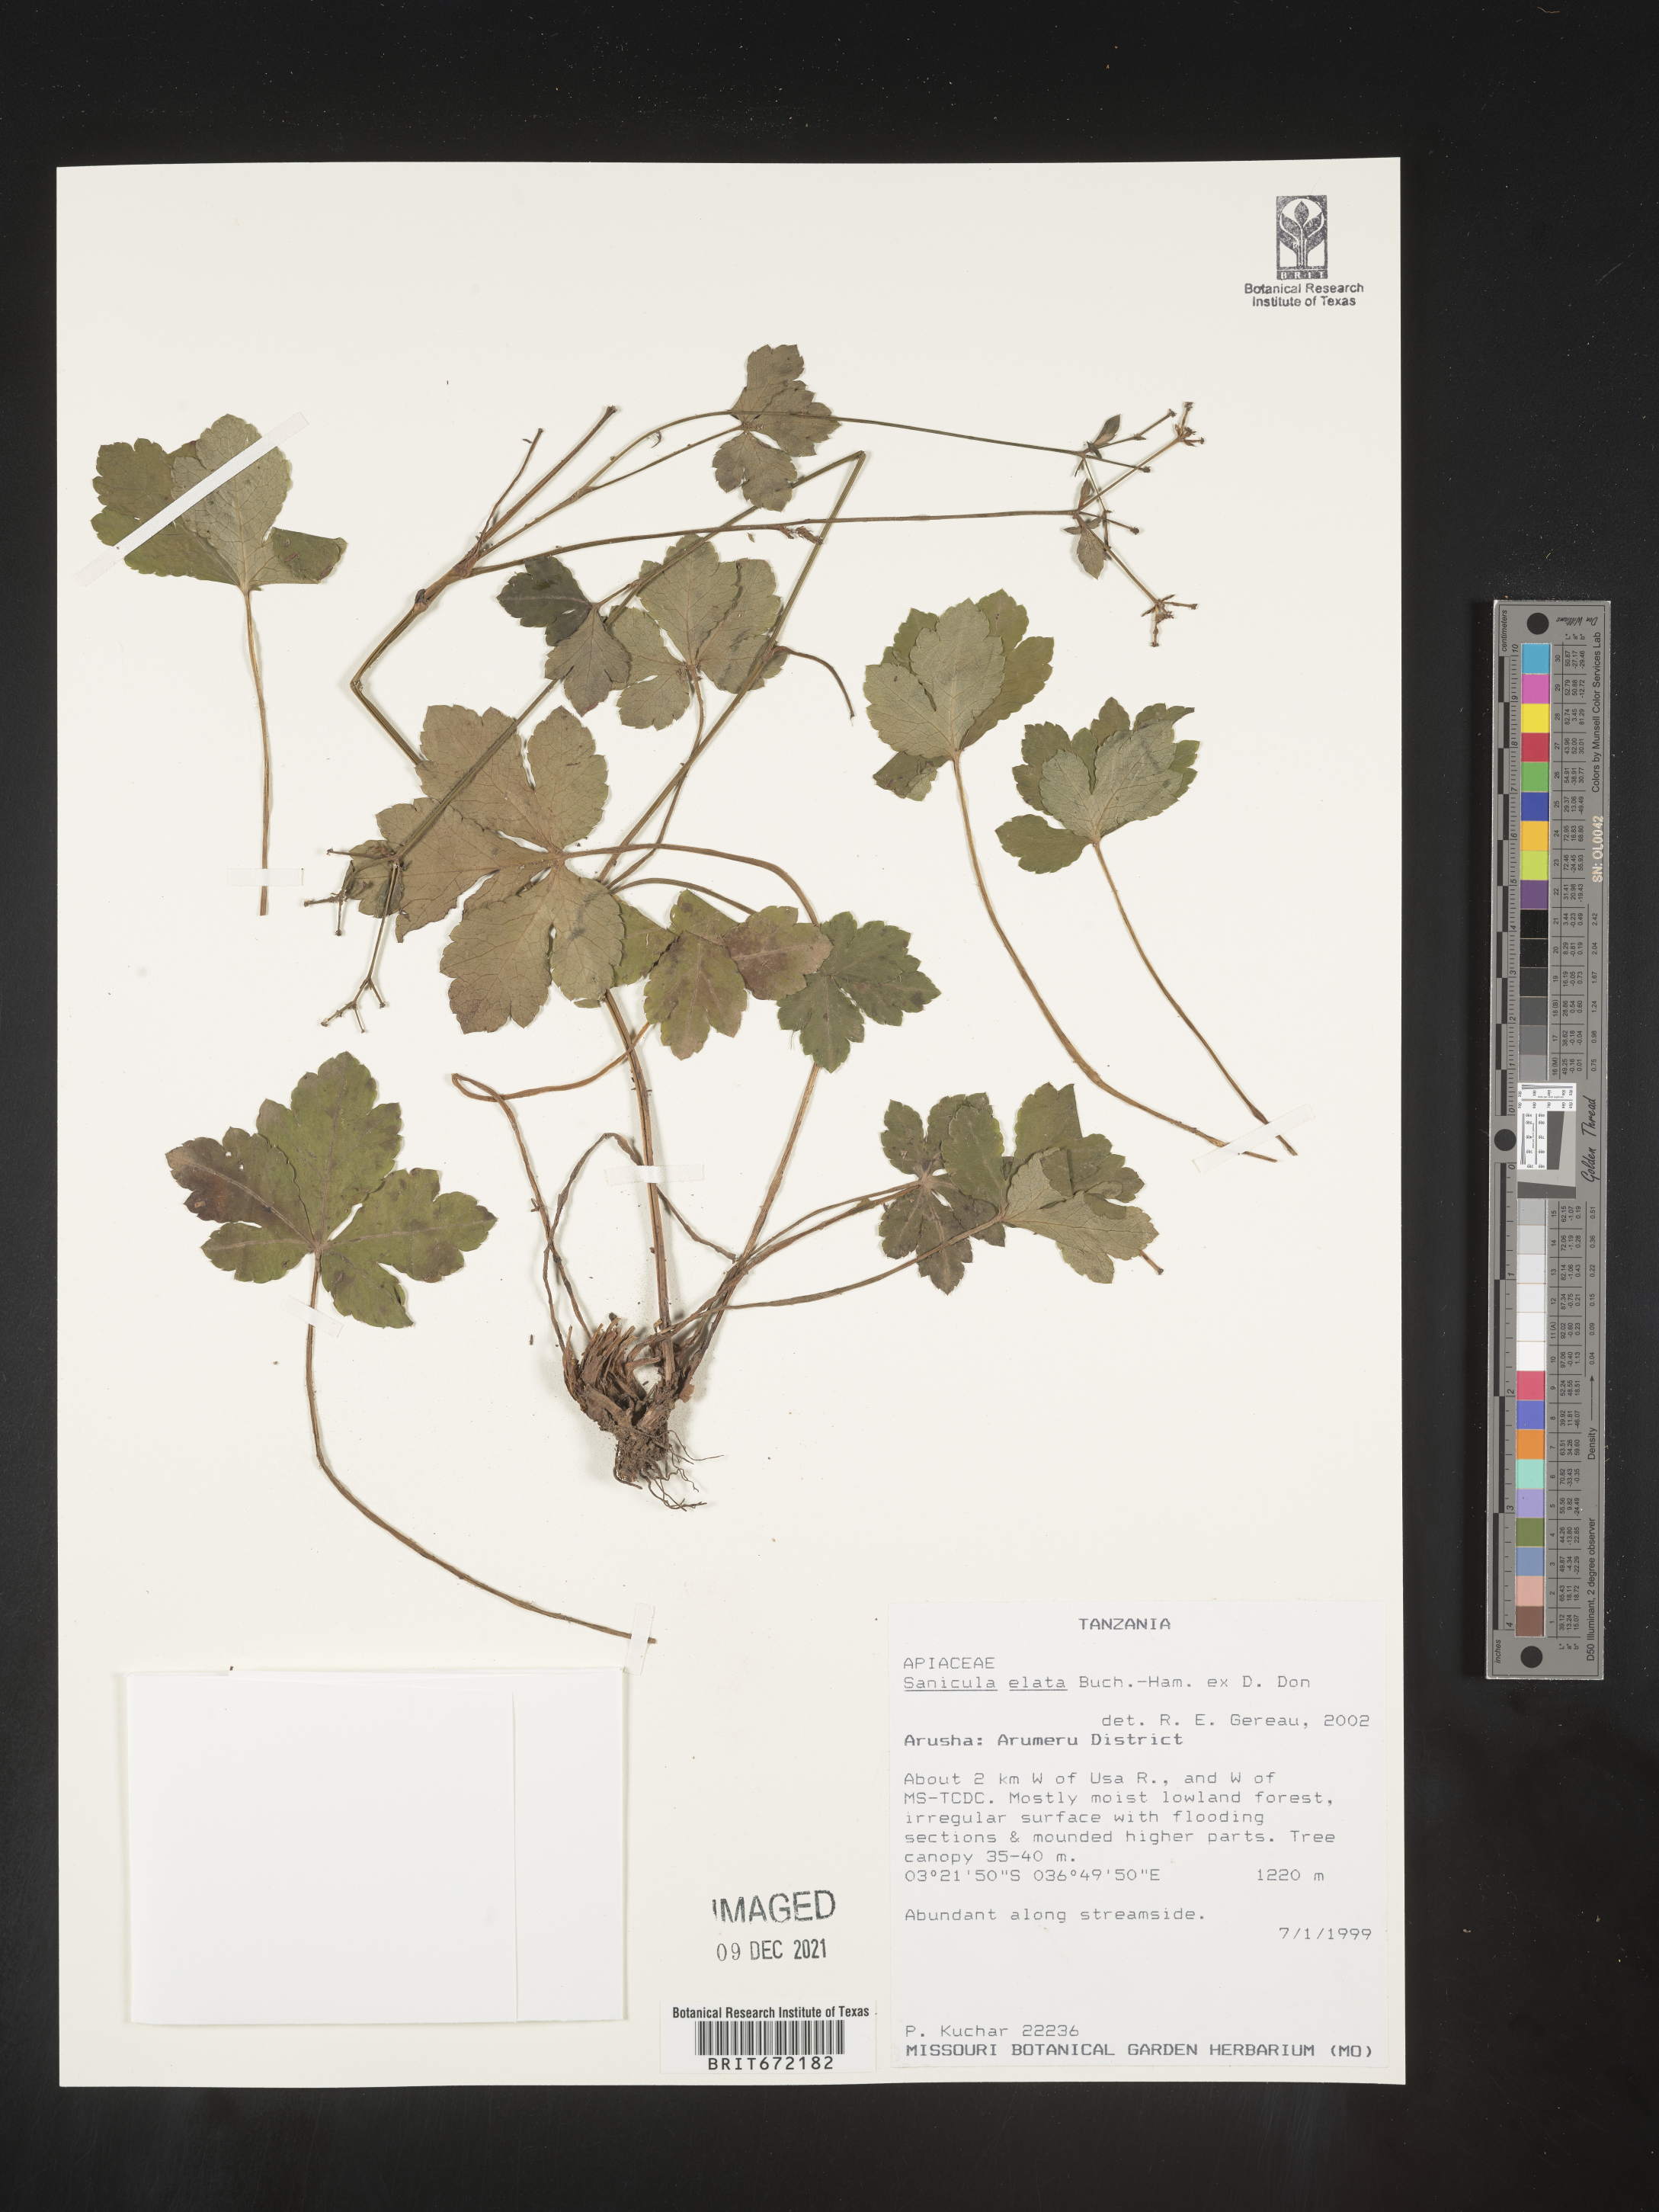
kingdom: Plantae
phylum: Tracheophyta
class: Magnoliopsida
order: Apiales
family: Apiaceae
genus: Sanicula
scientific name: Sanicula
